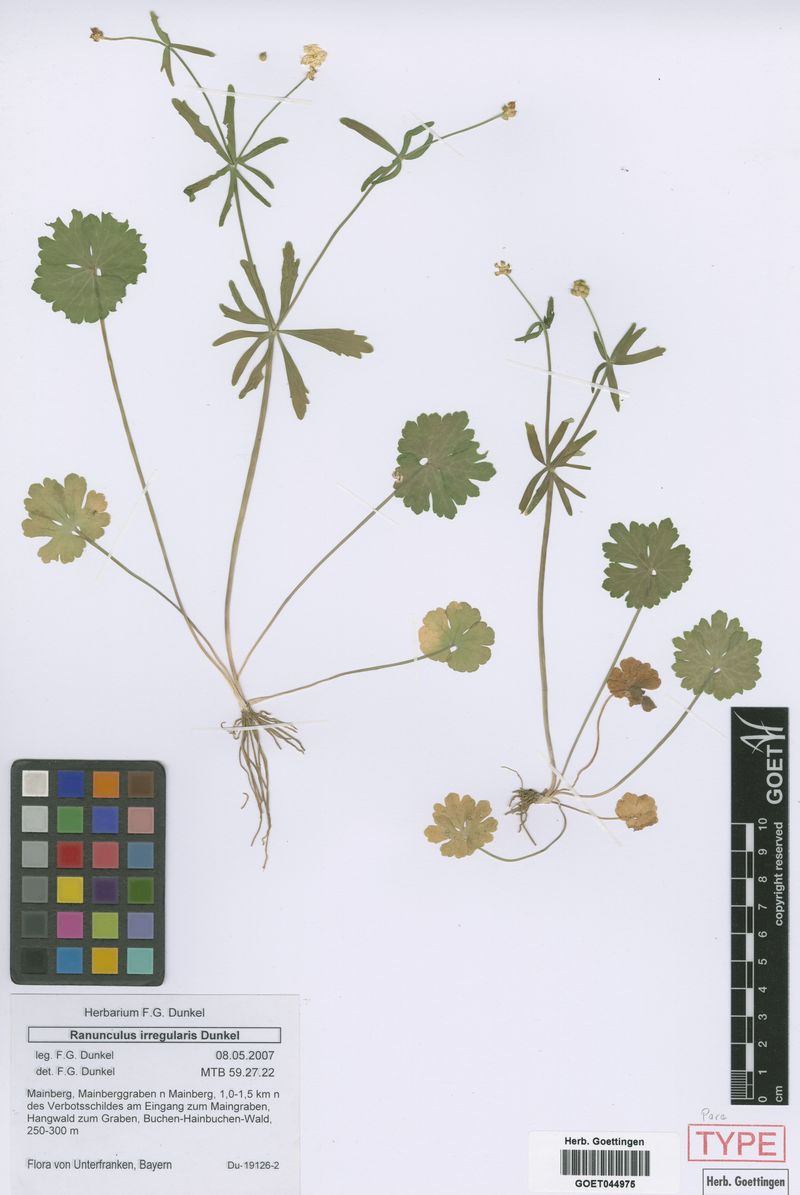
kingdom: Plantae
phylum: Tracheophyta
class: Magnoliopsida
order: Ranunculales
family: Ranunculaceae
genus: Ranunculus
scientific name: Ranunculus irregularis
